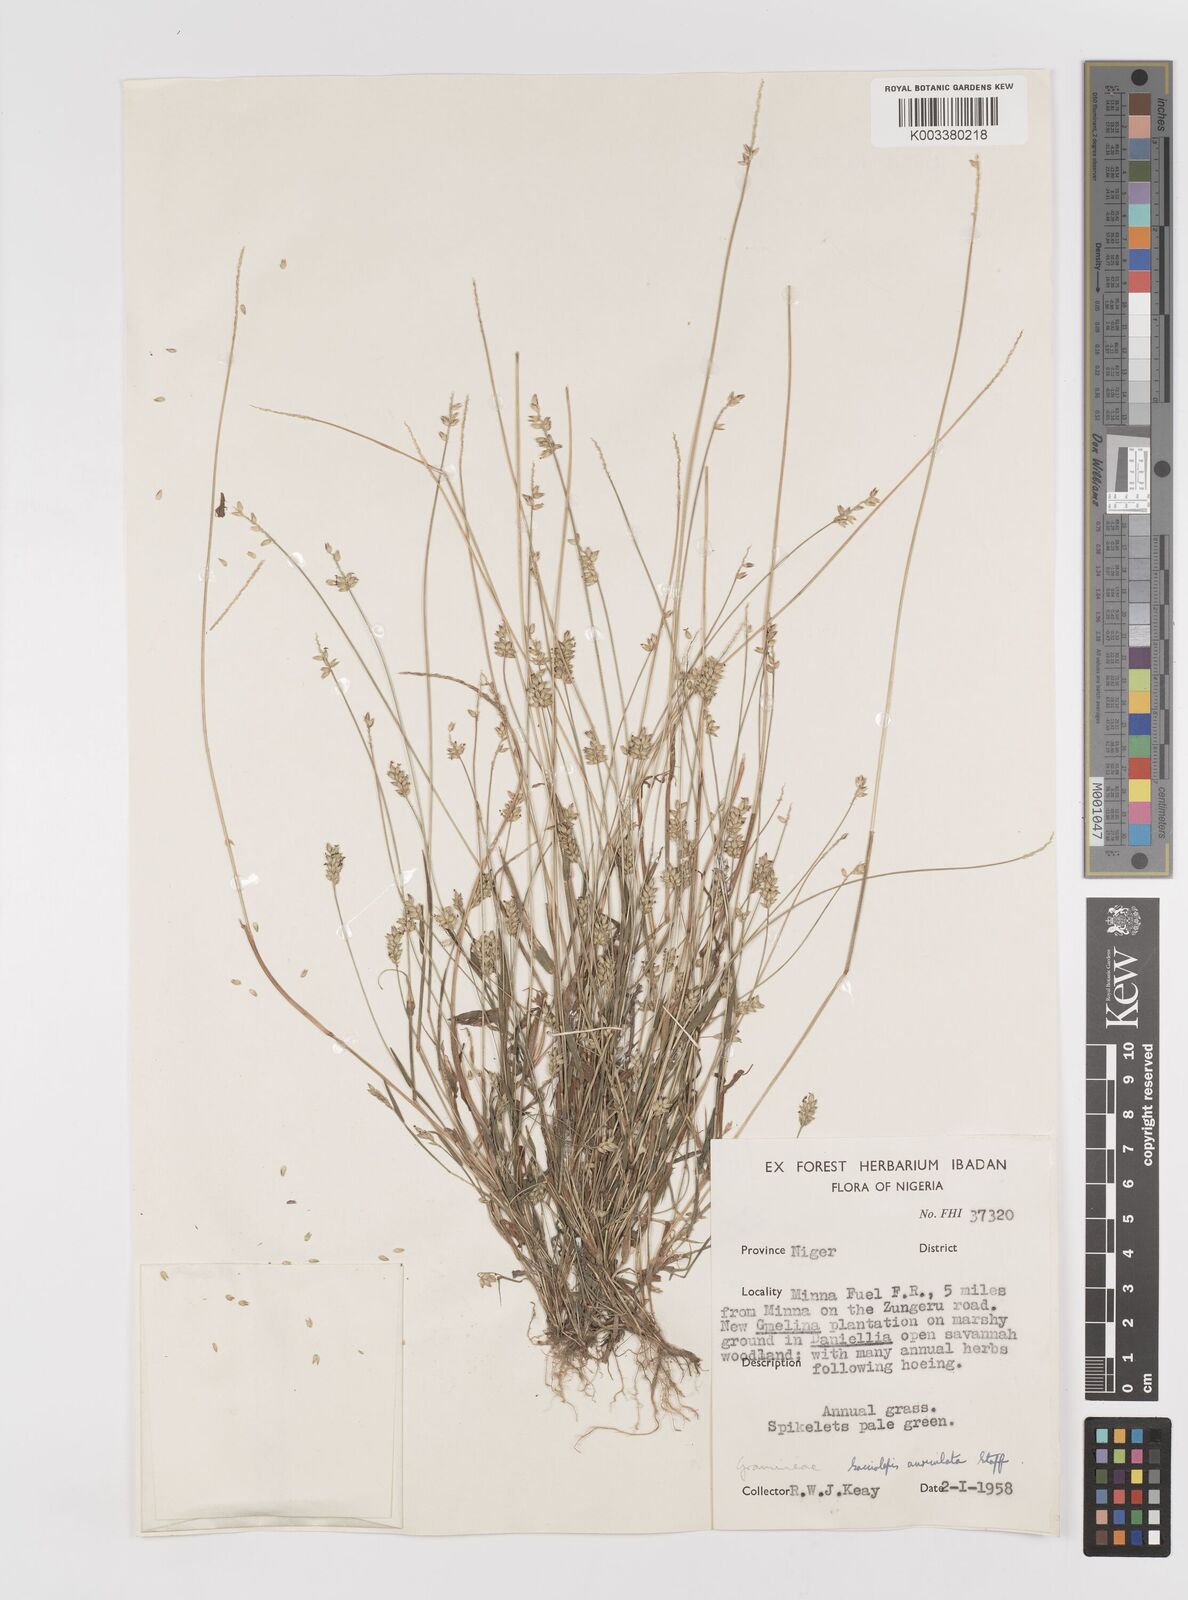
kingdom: Plantae
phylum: Tracheophyta
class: Liliopsida
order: Poales
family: Poaceae
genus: Sacciolepis
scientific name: Sacciolepis indica
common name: Glenwoodgrass
